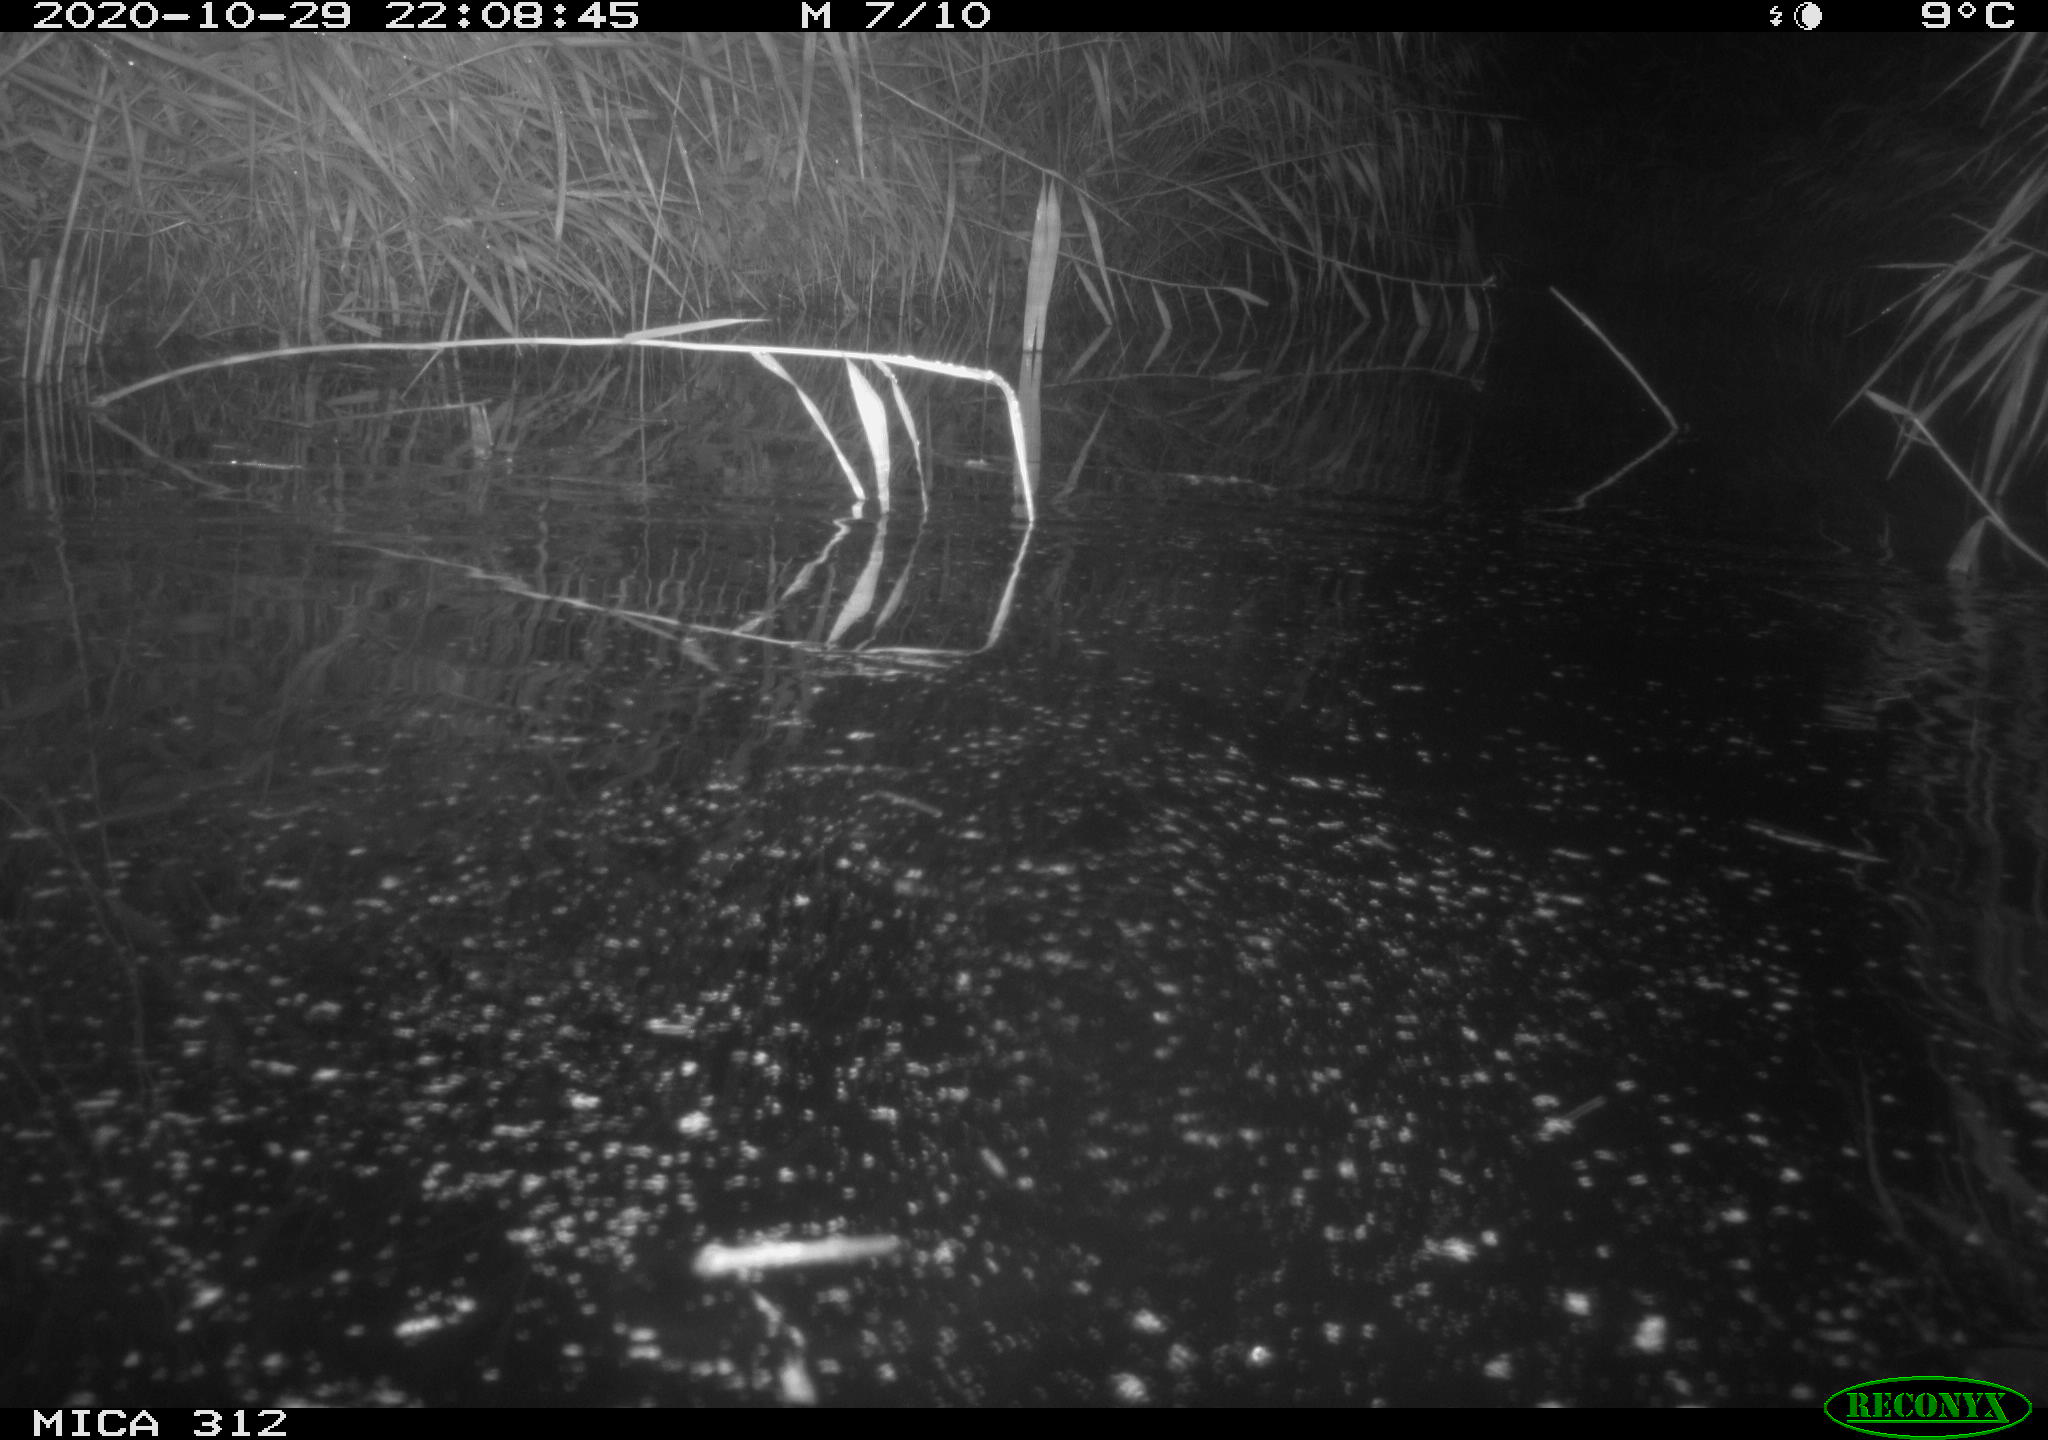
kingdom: Animalia
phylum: Chordata
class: Mammalia
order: Rodentia
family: Muridae
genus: Rattus
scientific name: Rattus norvegicus
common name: Brown rat
